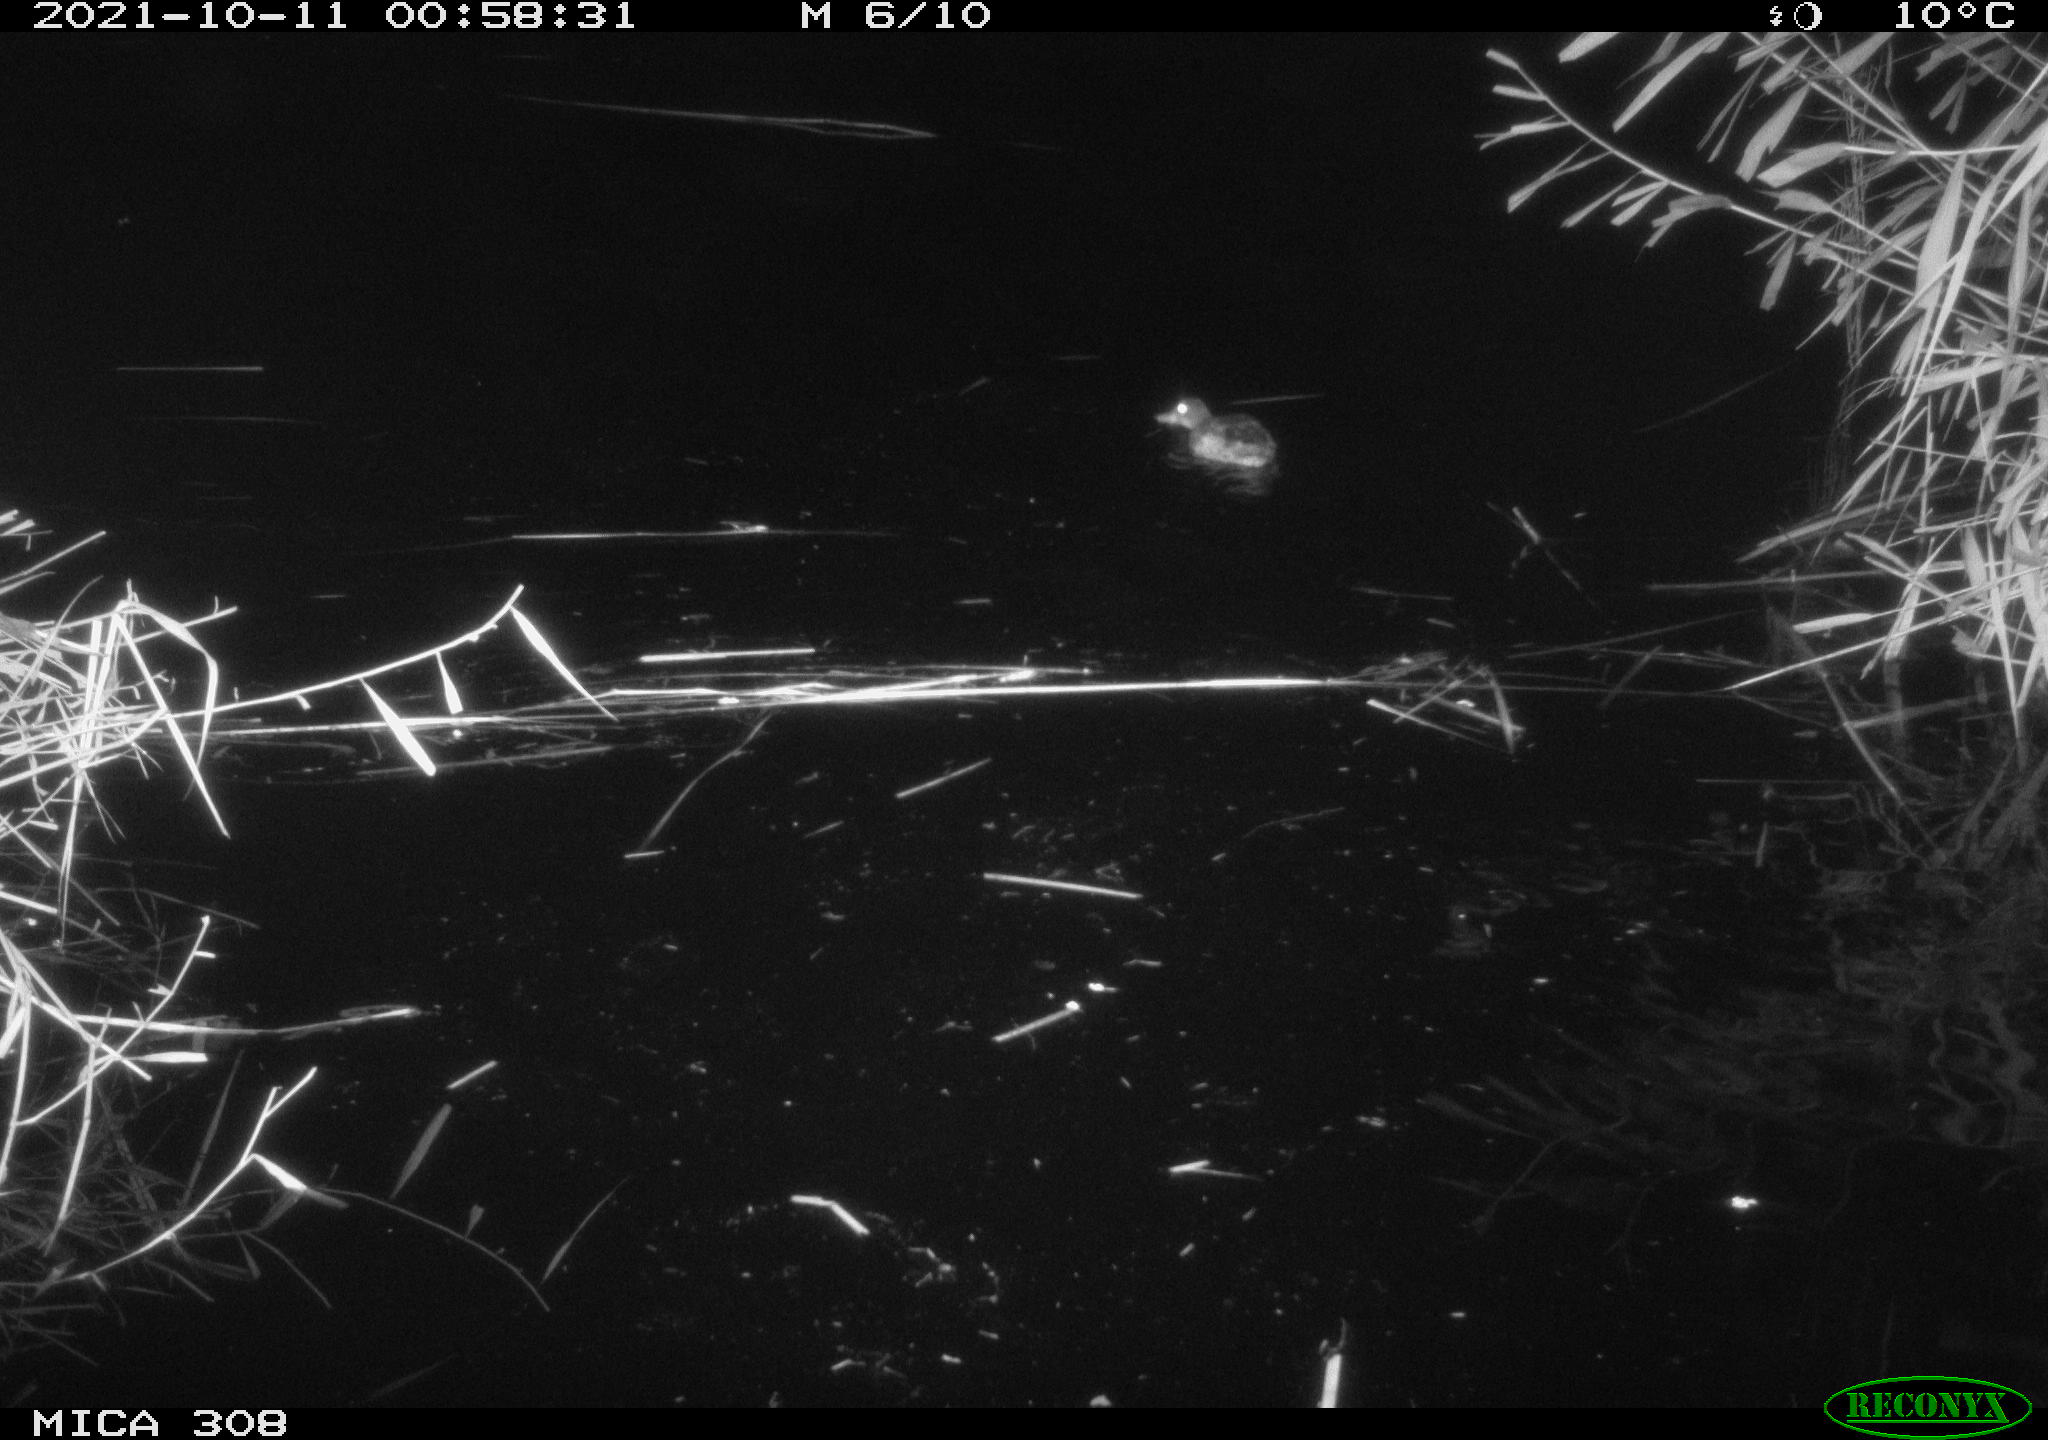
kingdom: Animalia
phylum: Chordata
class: Aves
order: Anseriformes
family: Anatidae
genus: Spatula
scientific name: Spatula clypeata
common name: Northern shoveler
